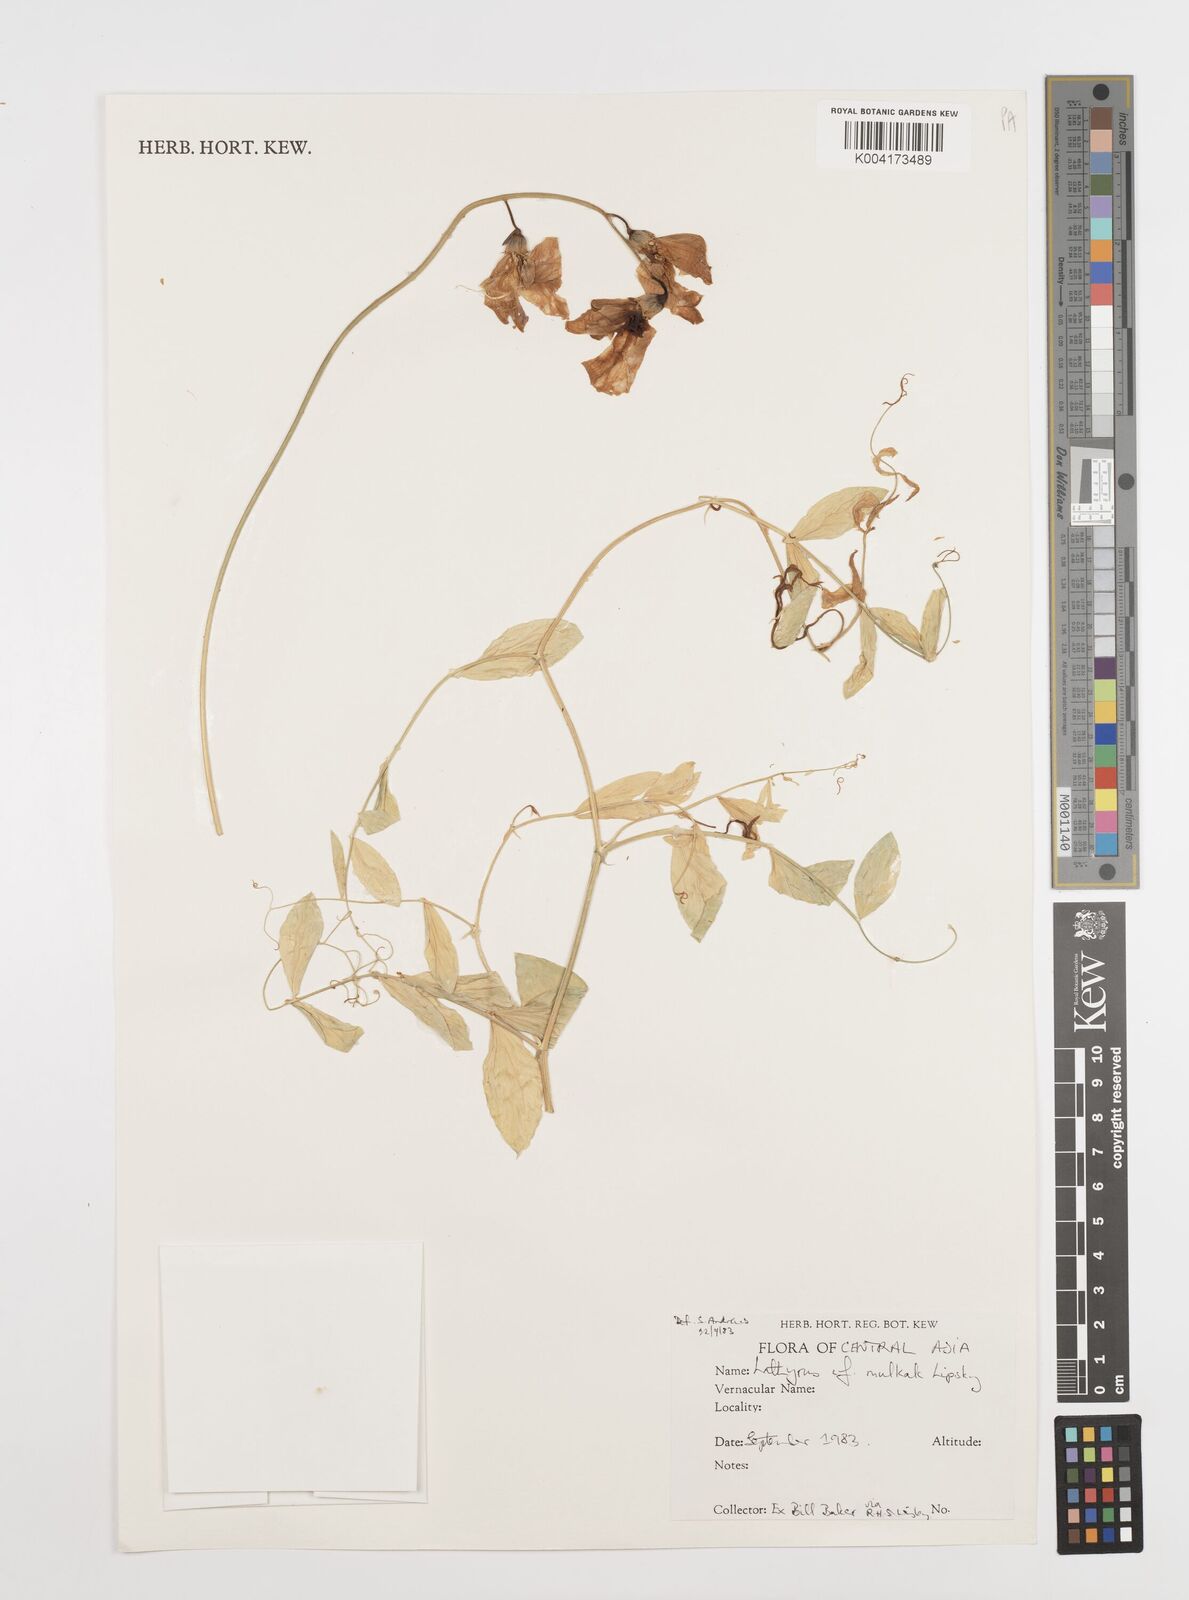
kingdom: Plantae
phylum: Tracheophyta
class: Magnoliopsida
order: Fabales
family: Fabaceae
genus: Lathyrus
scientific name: Lathyrus mulkak
